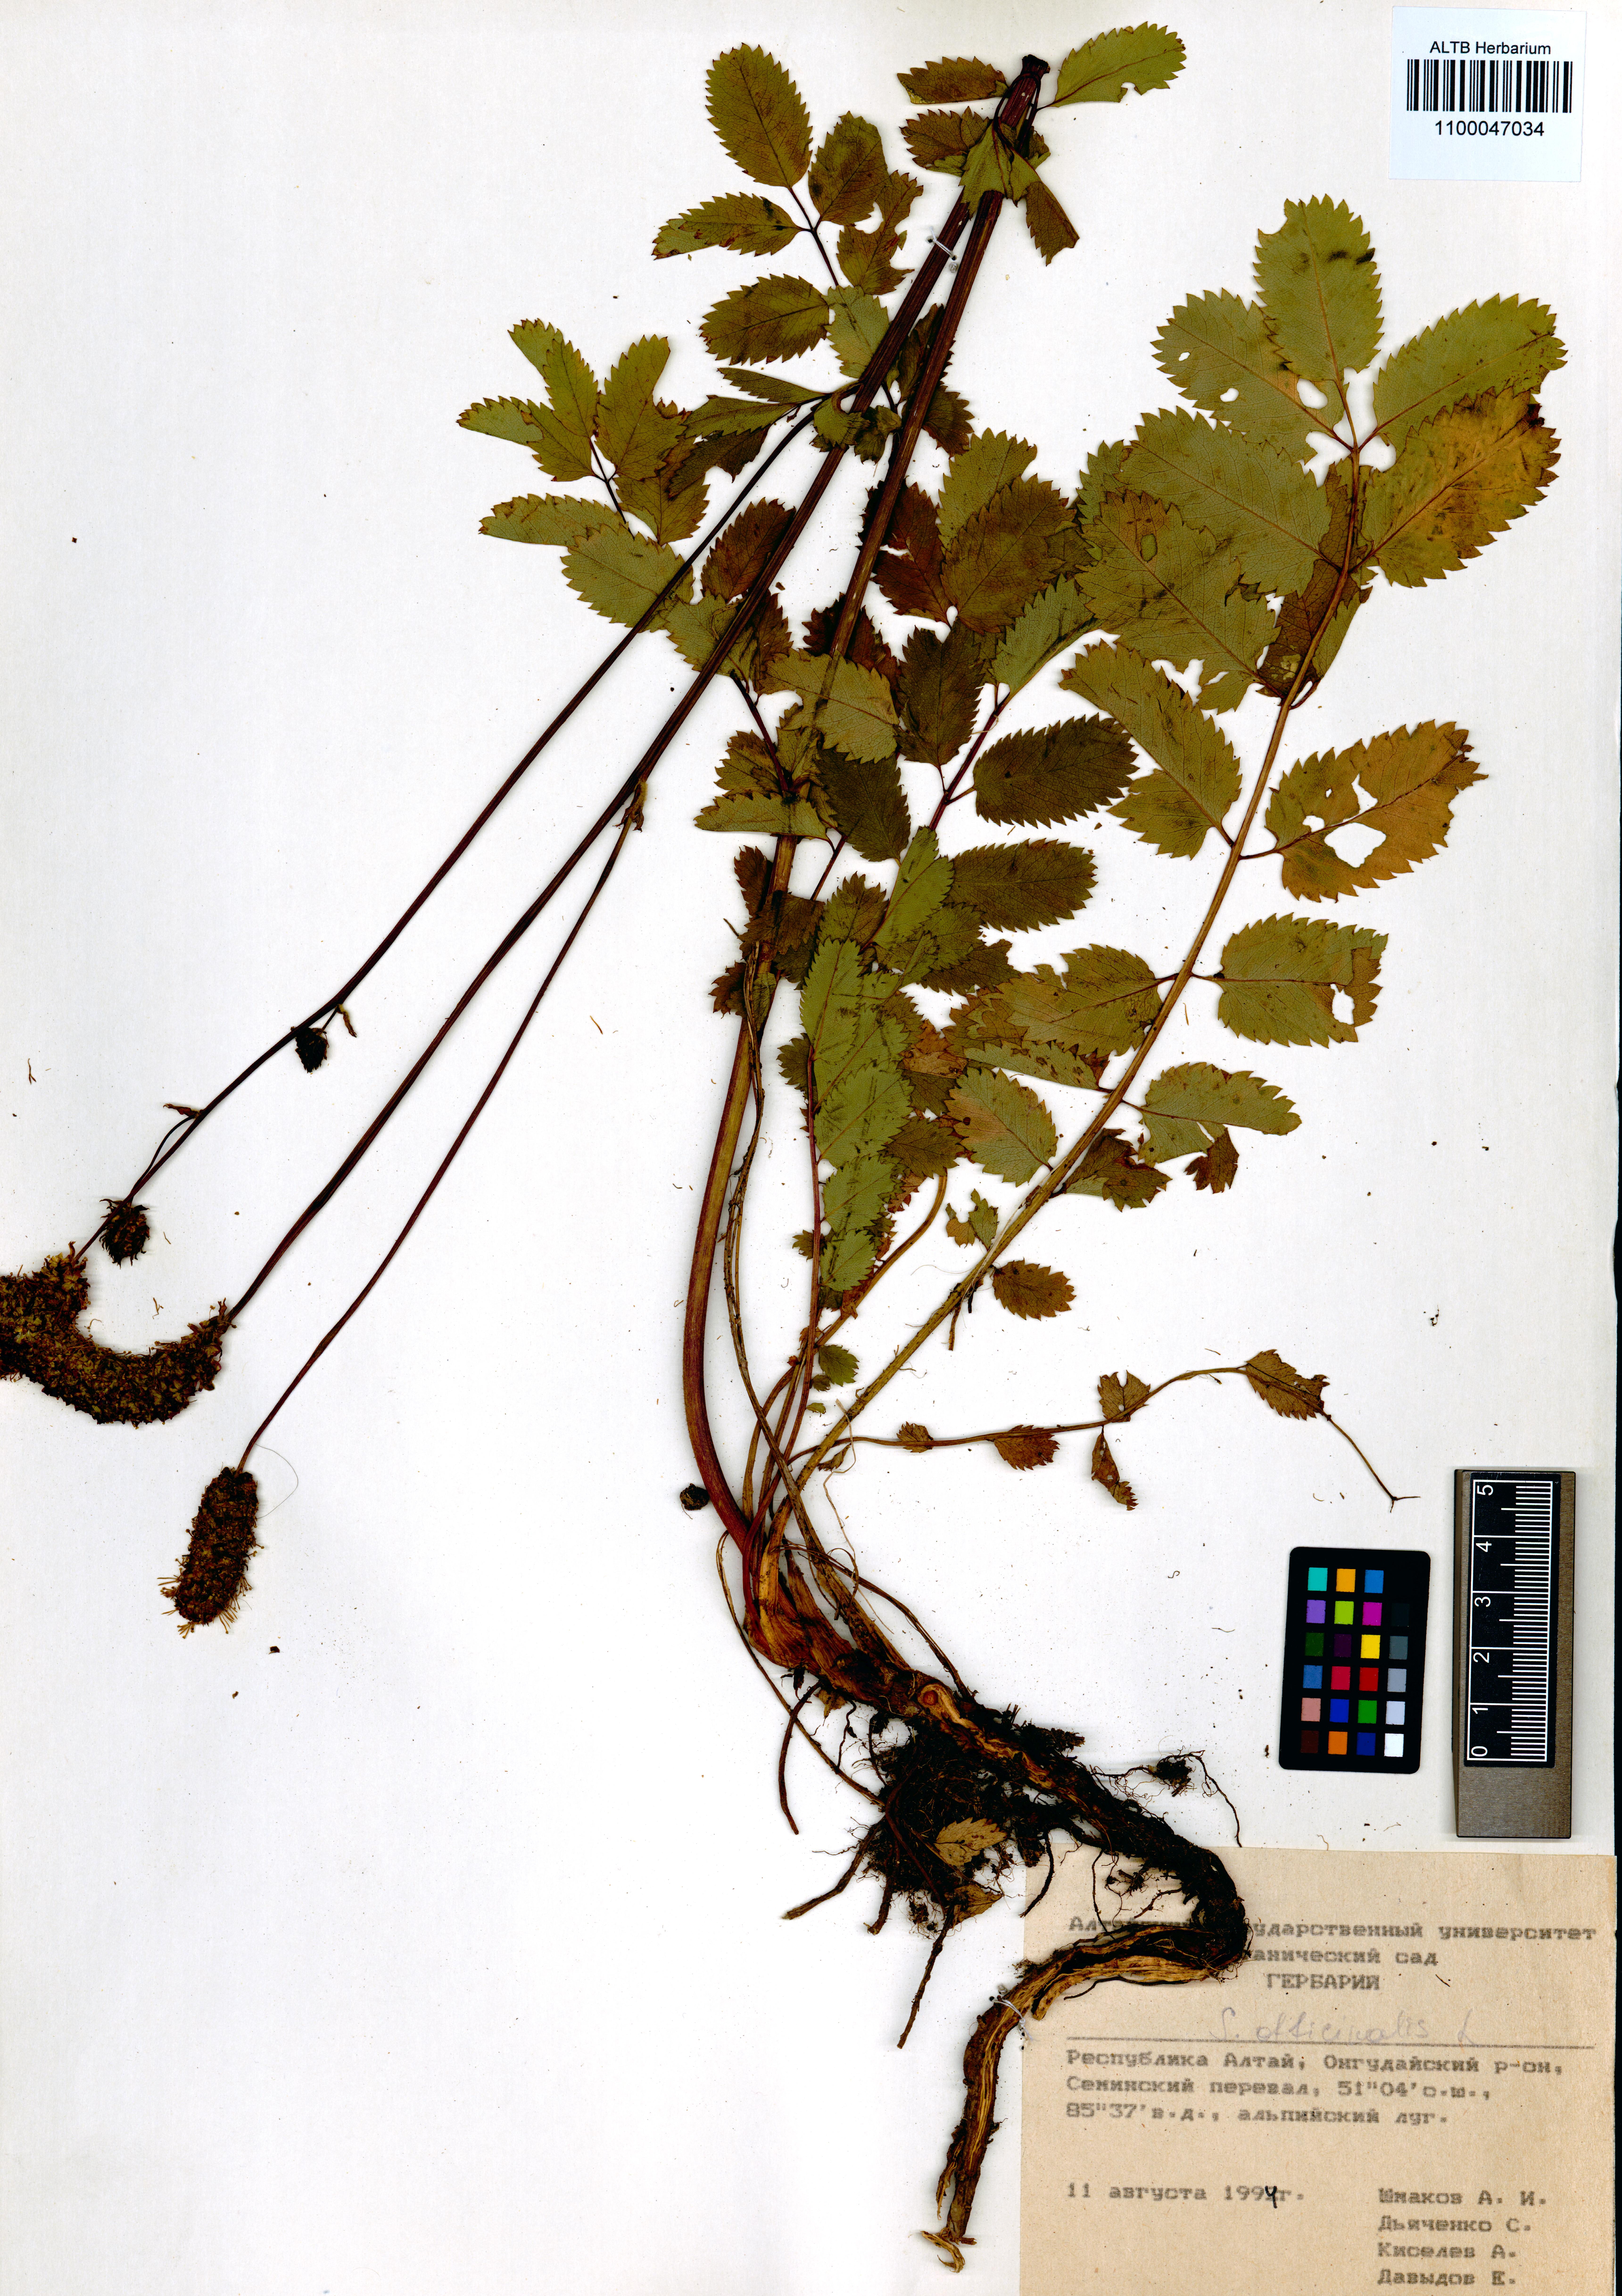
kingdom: Plantae
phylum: Tracheophyta
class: Magnoliopsida
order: Rosales
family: Rosaceae
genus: Sanguisorba
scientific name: Sanguisorba officinalis
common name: Great burnet
